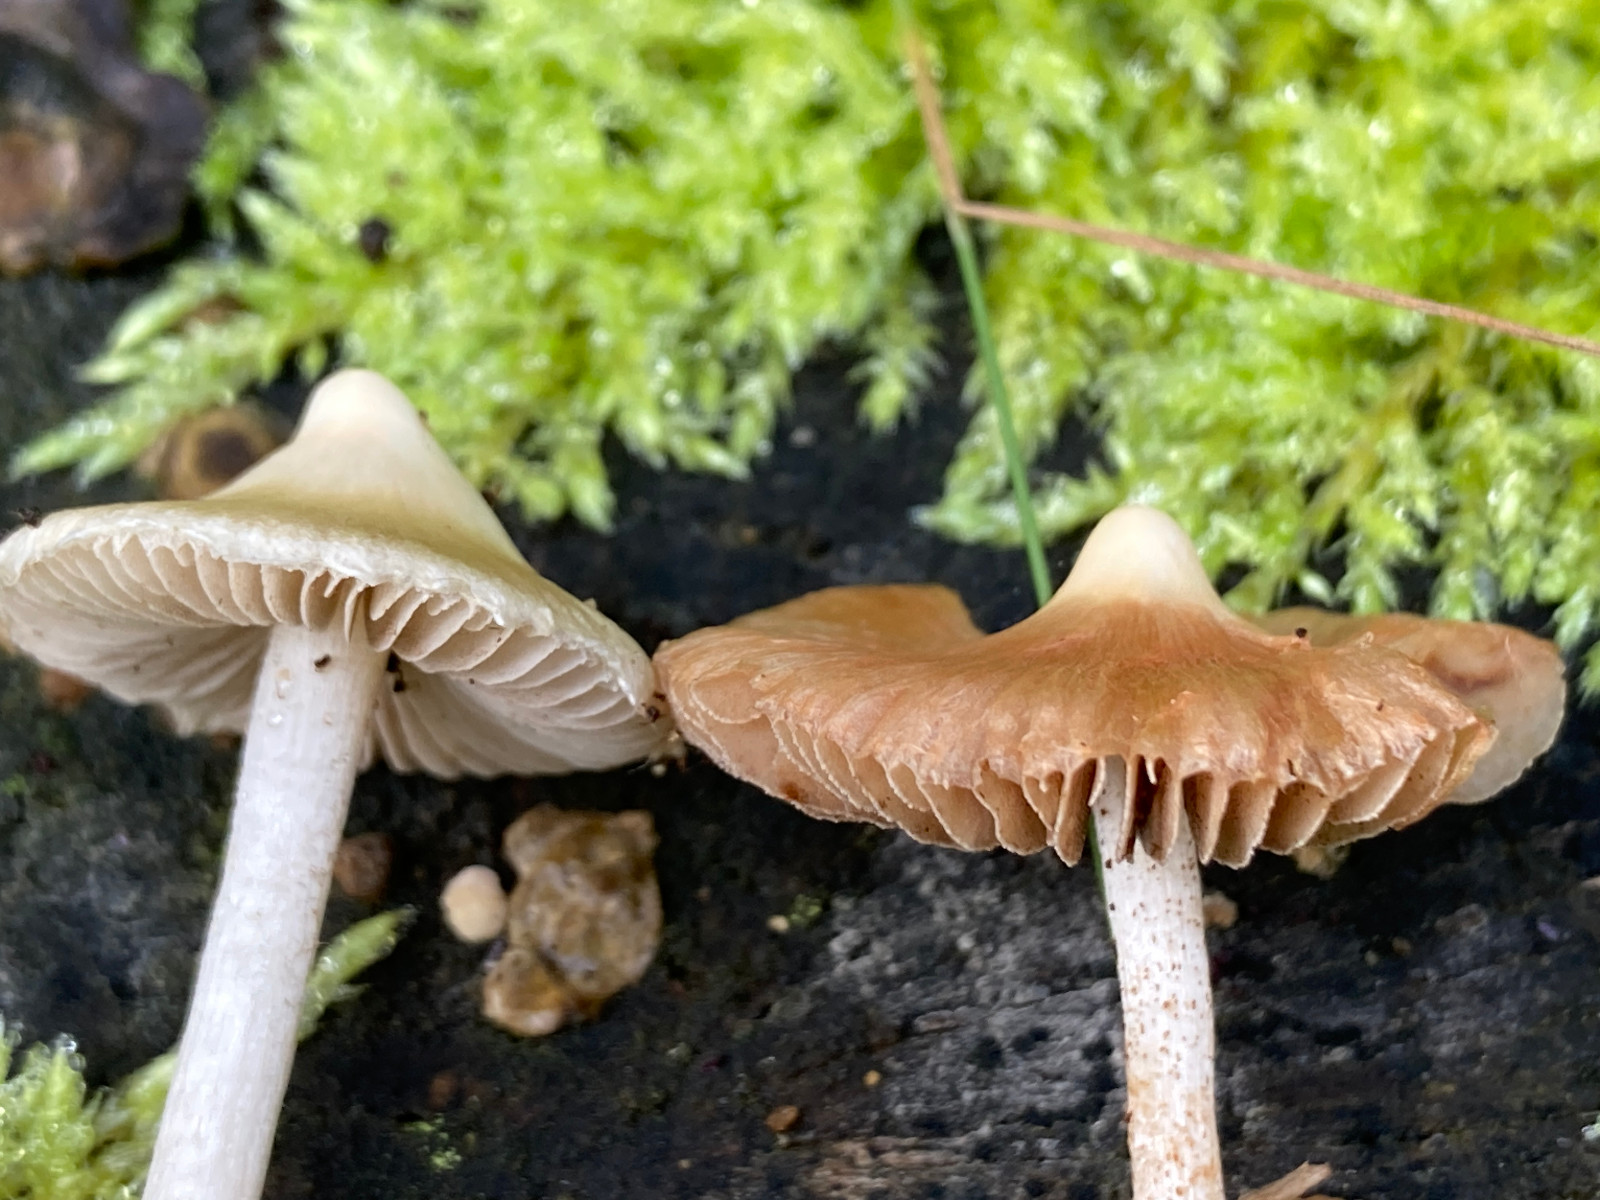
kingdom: Fungi
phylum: Basidiomycota
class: Agaricomycetes
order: Agaricales
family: Inocybaceae
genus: Inocybe
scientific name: Inocybe
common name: almindelig trævlhat
